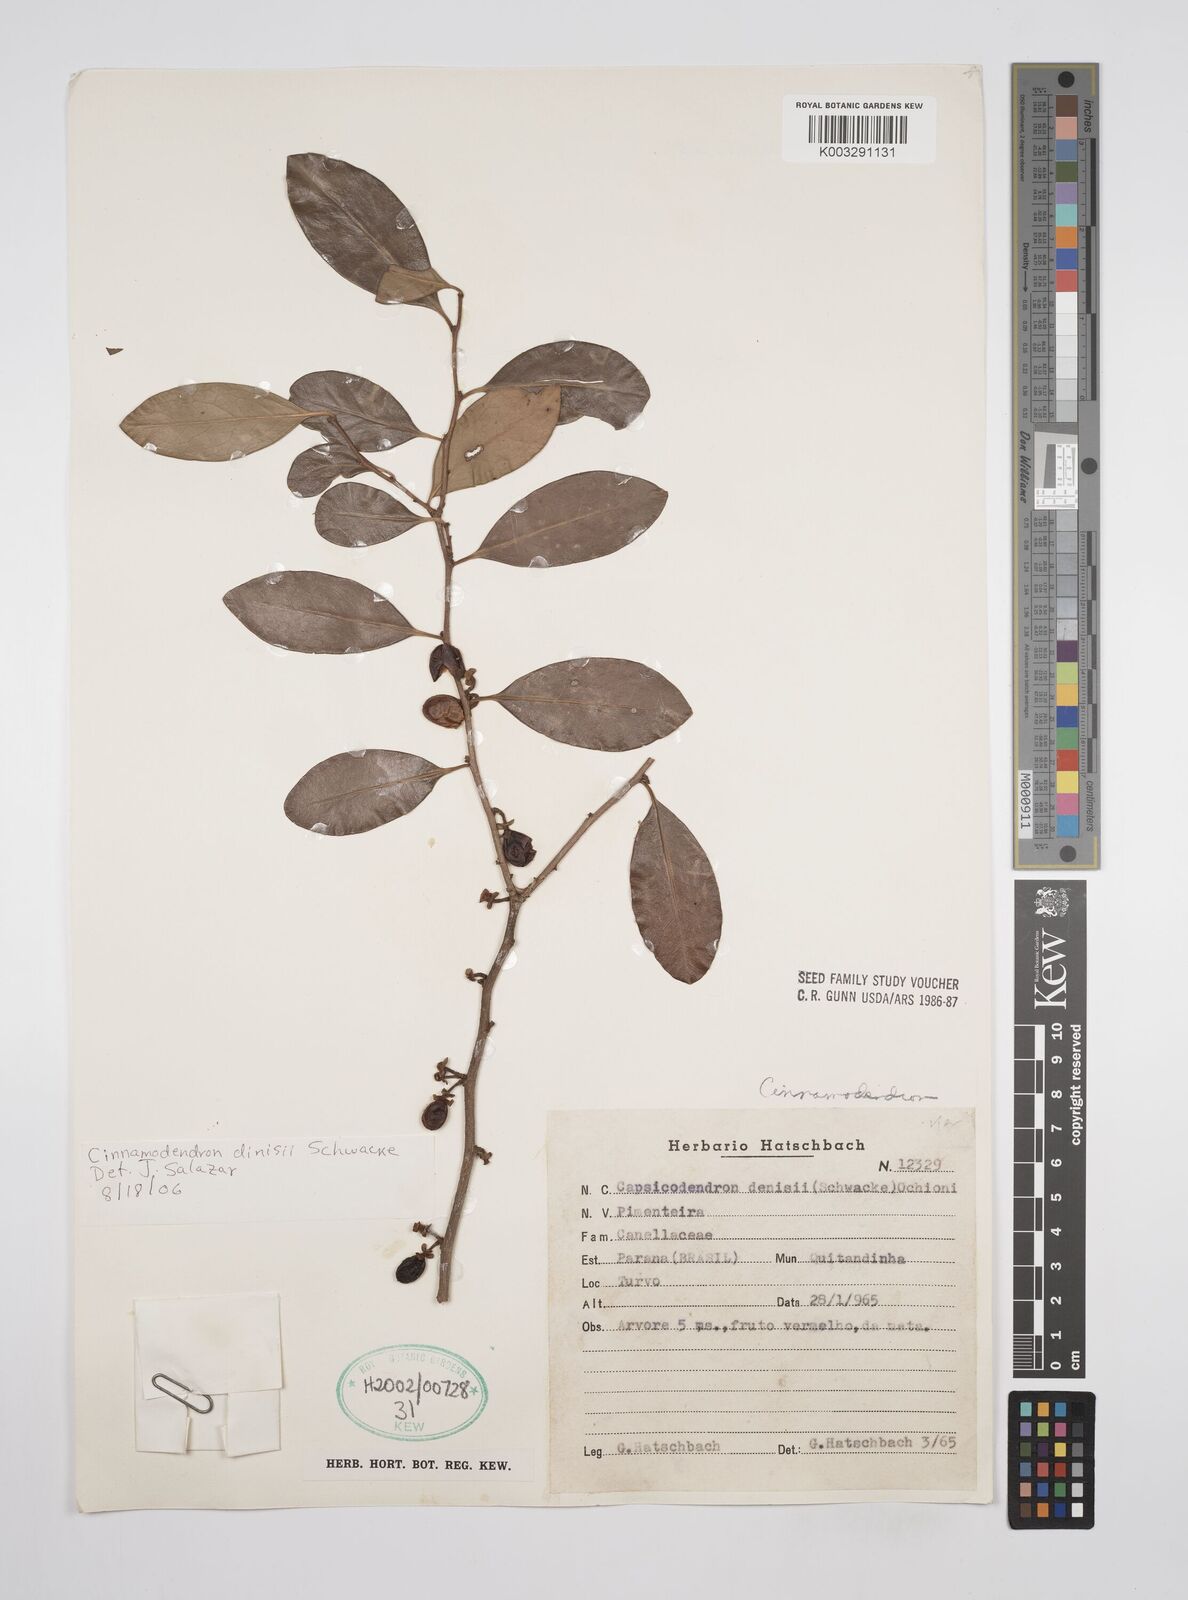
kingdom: Plantae
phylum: Tracheophyta
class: Magnoliopsida
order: Canellales
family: Canellaceae
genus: Cinnamodendron
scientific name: Cinnamodendron dinisii
